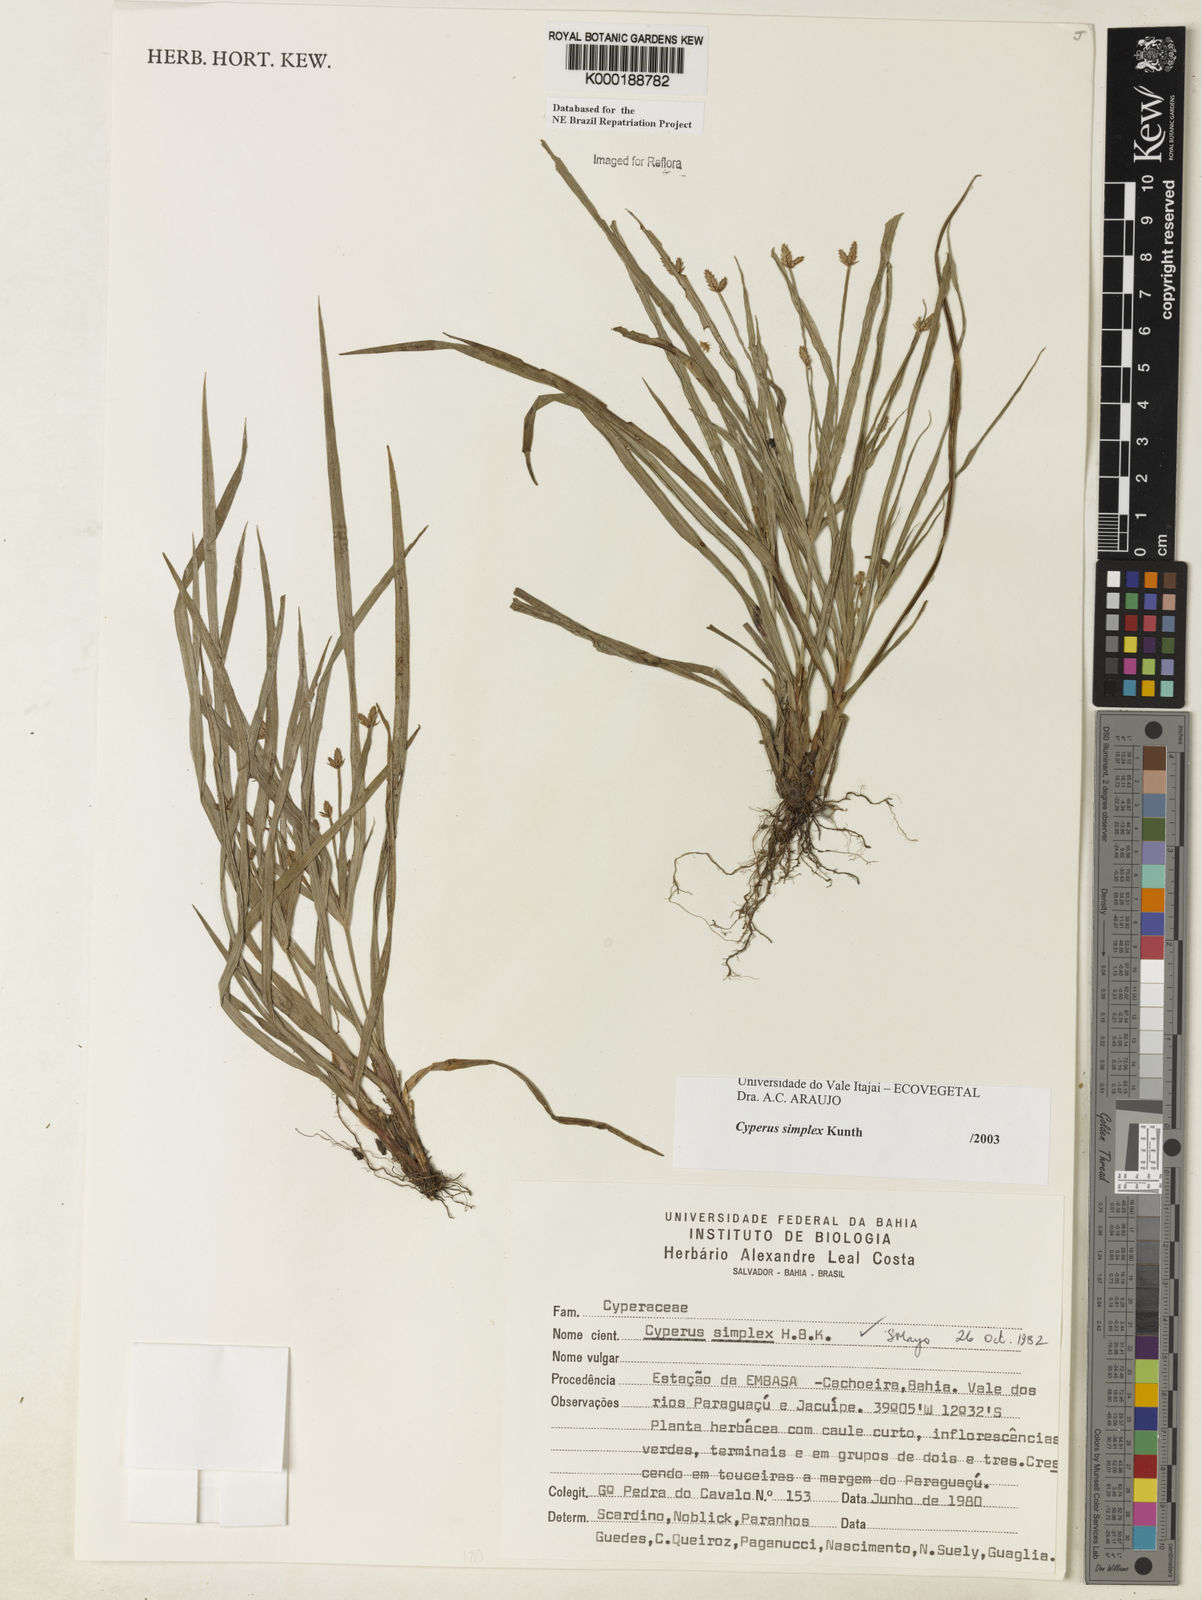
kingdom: Plantae
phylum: Tracheophyta
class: Liliopsida
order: Poales
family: Cyperaceae
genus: Cyperus
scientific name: Cyperus simplex
